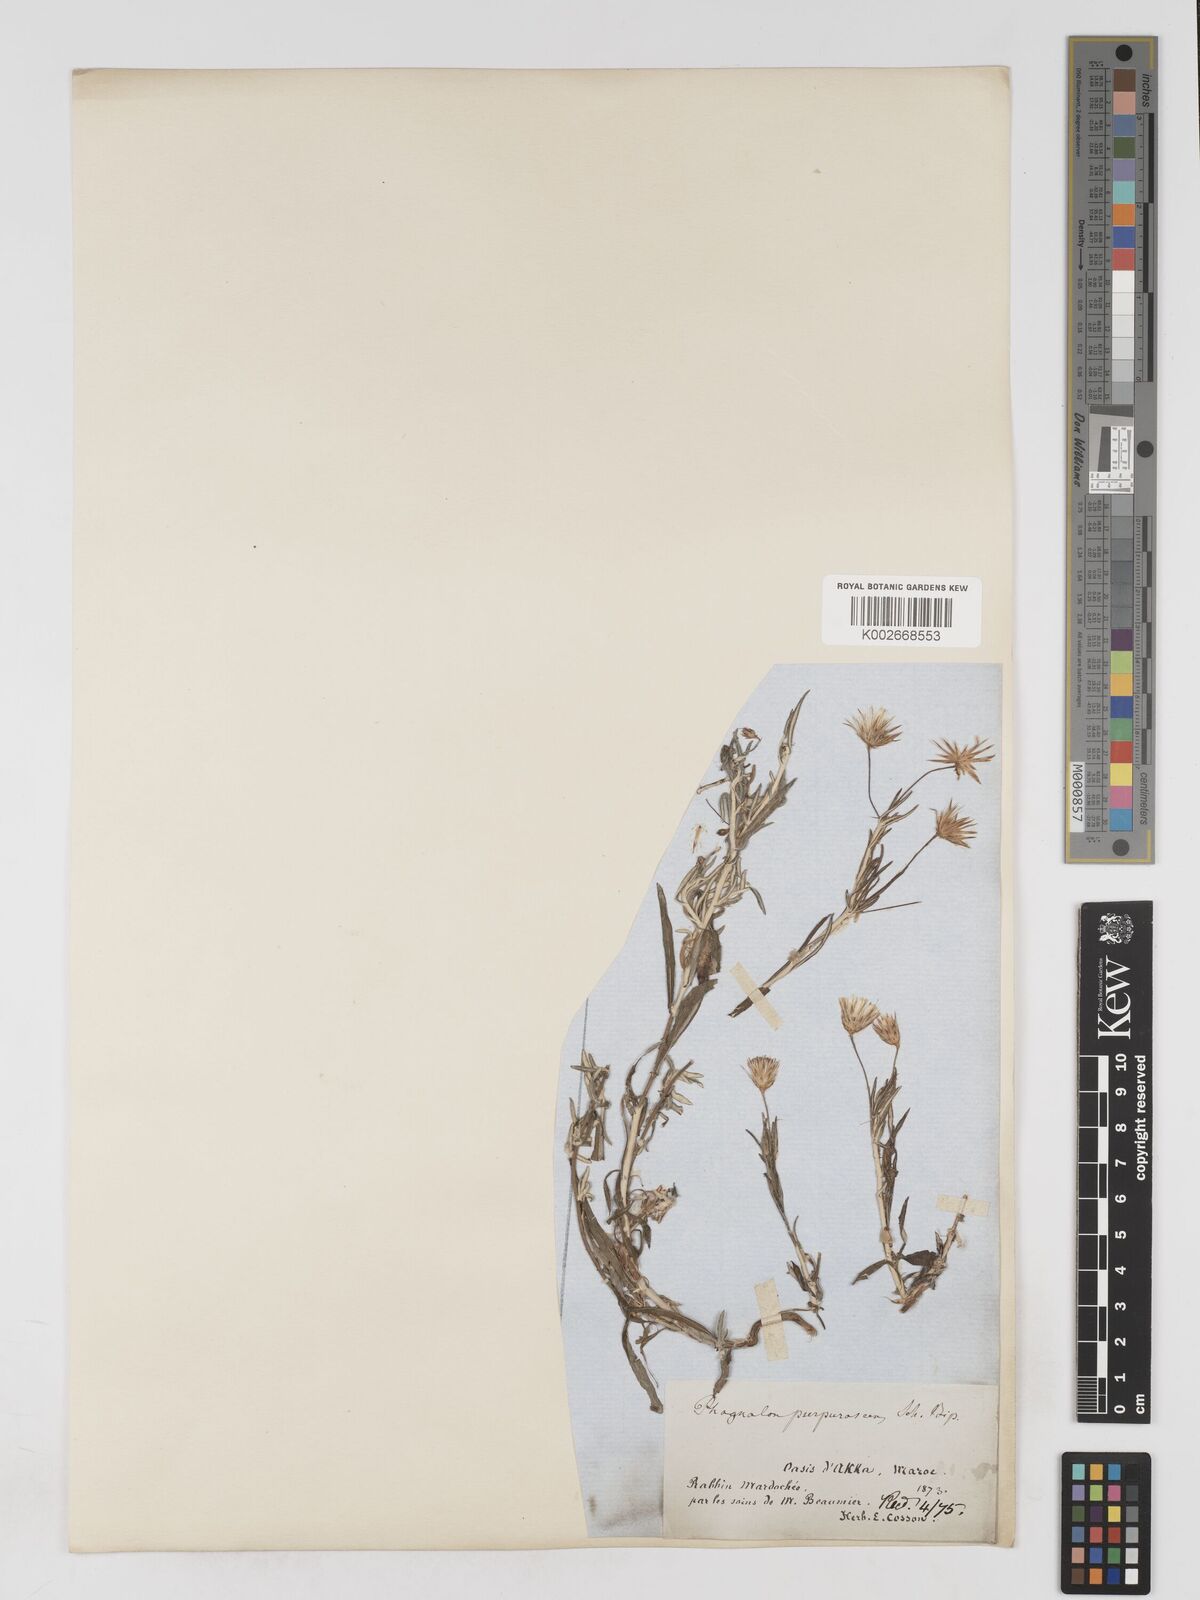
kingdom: Plantae
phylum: Tracheophyta
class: Magnoliopsida
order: Asterales
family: Asteraceae
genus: Phagnalon
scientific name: Phagnalon purpurascens
